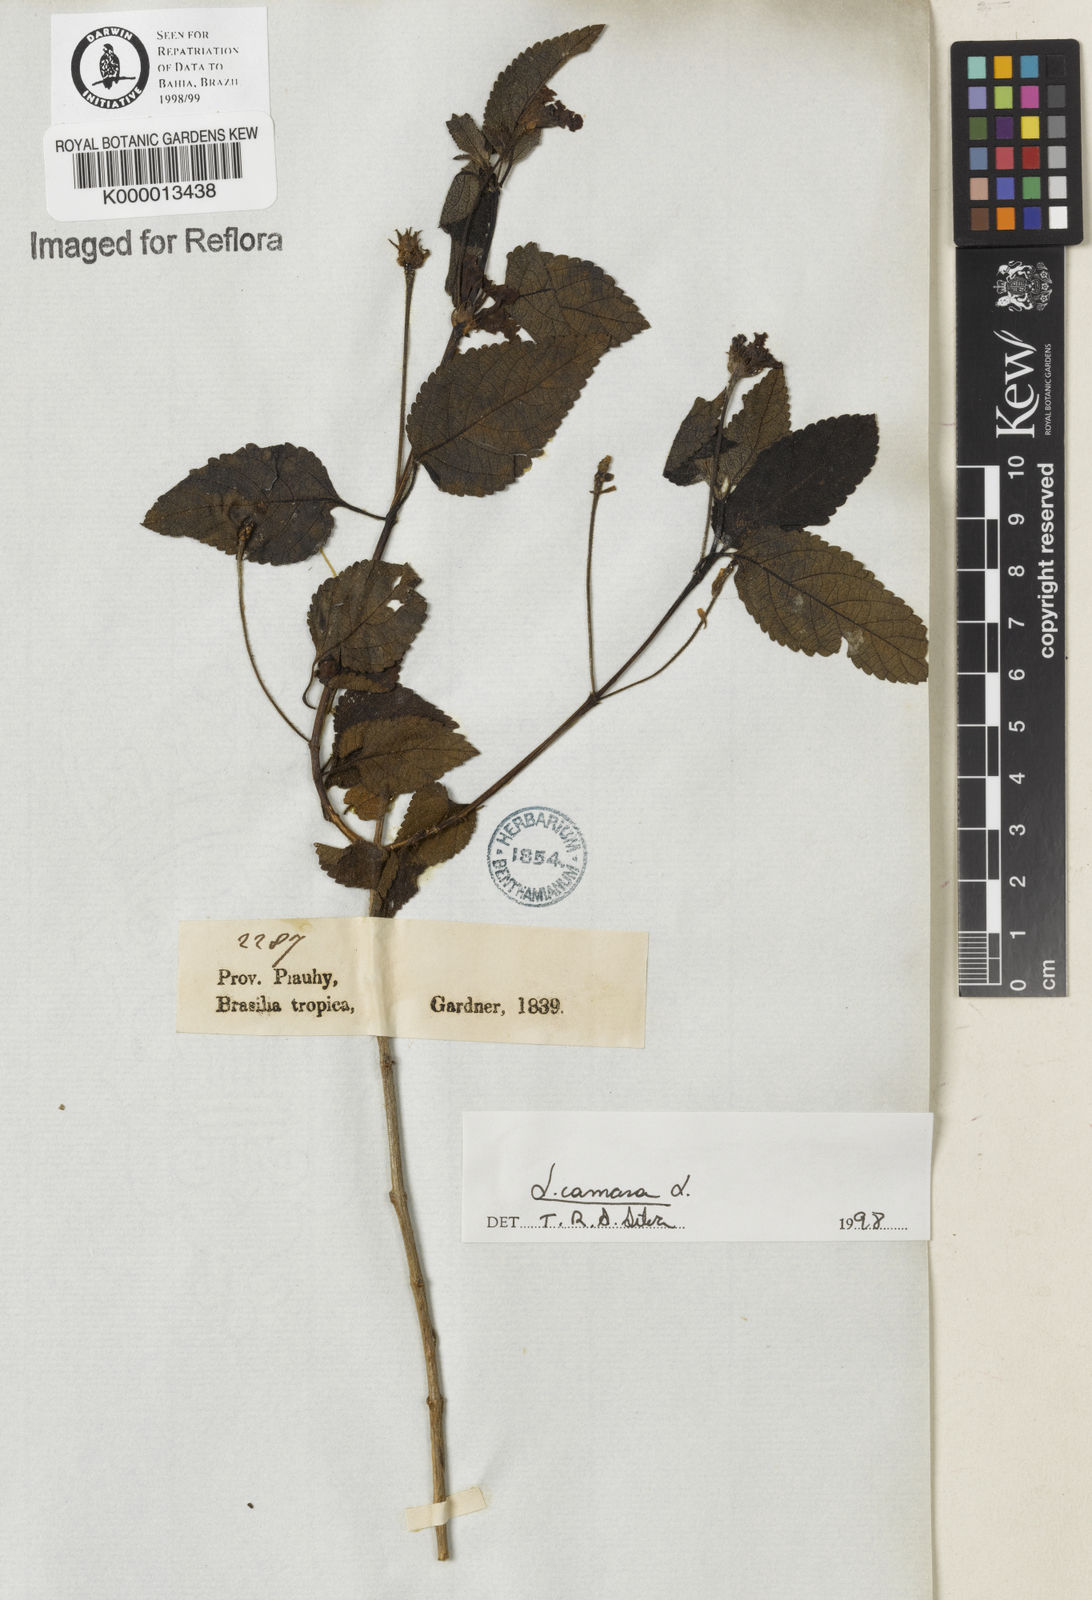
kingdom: Plantae
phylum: Tracheophyta
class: Magnoliopsida
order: Lamiales
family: Verbenaceae
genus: Lantana
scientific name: Lantana camara
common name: Lantana
